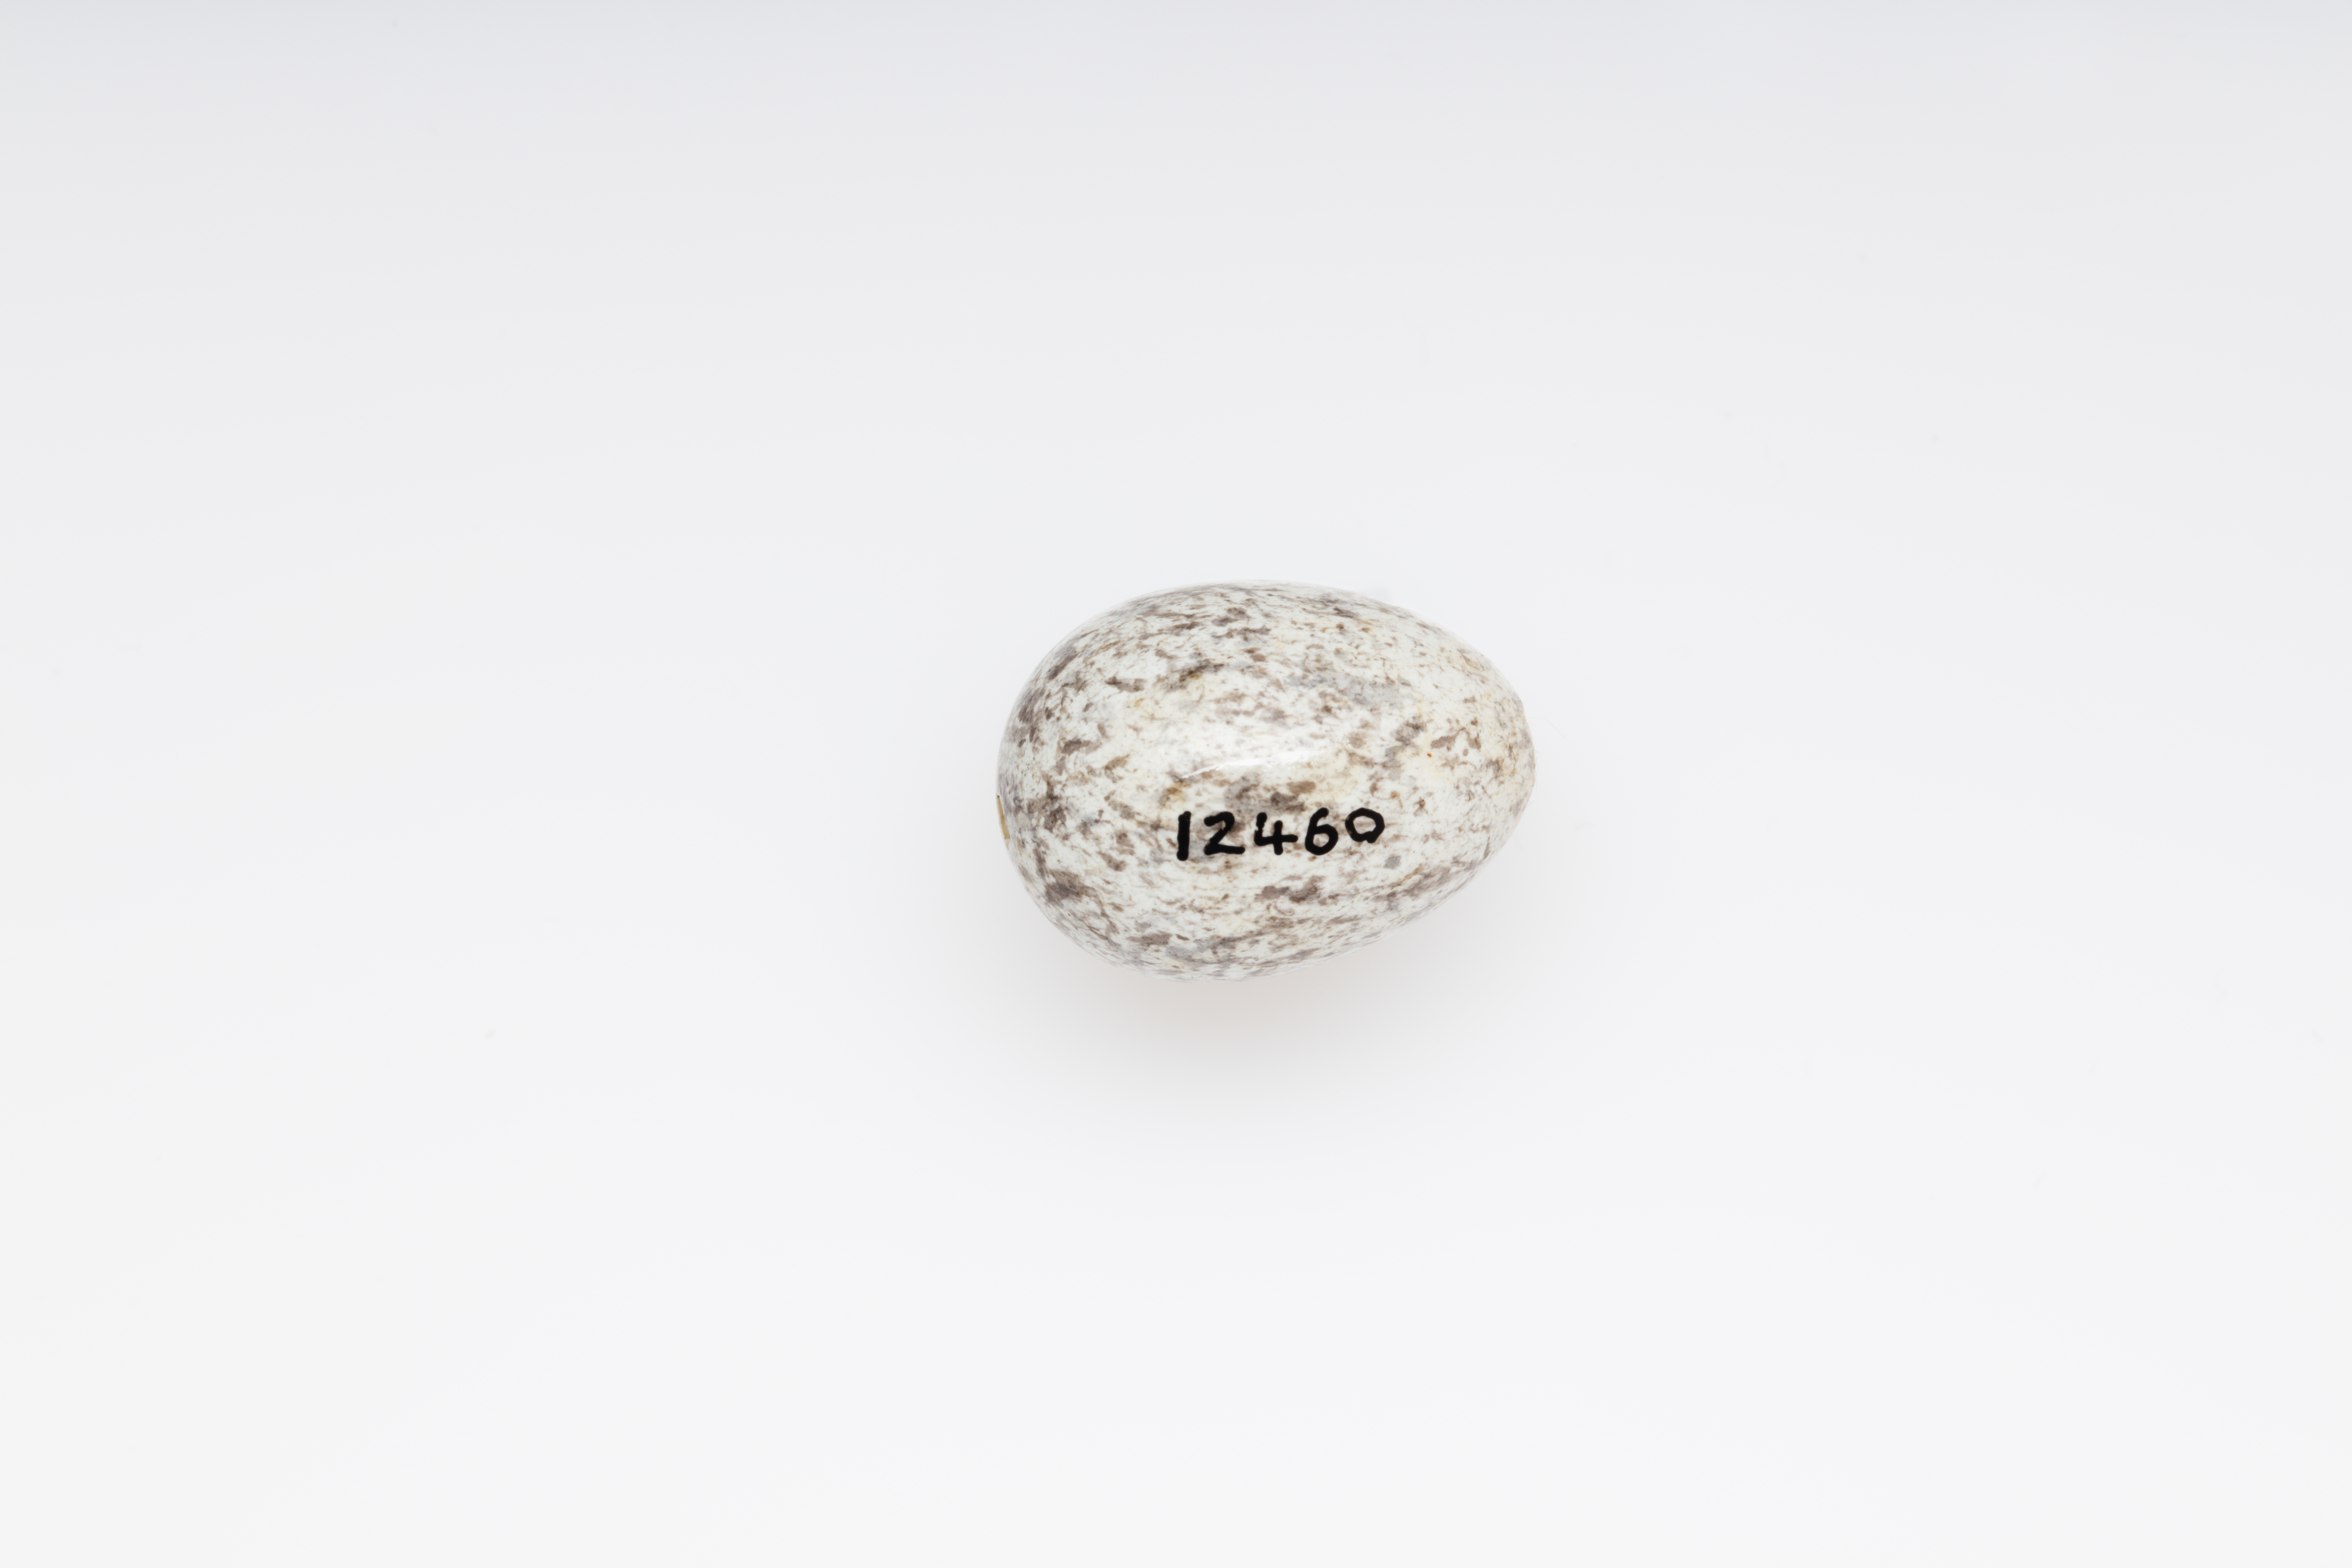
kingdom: Animalia
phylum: Chordata
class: Aves
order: Passeriformes
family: Alaudidae
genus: Lullula
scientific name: Lullula arborea
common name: Woodlark
